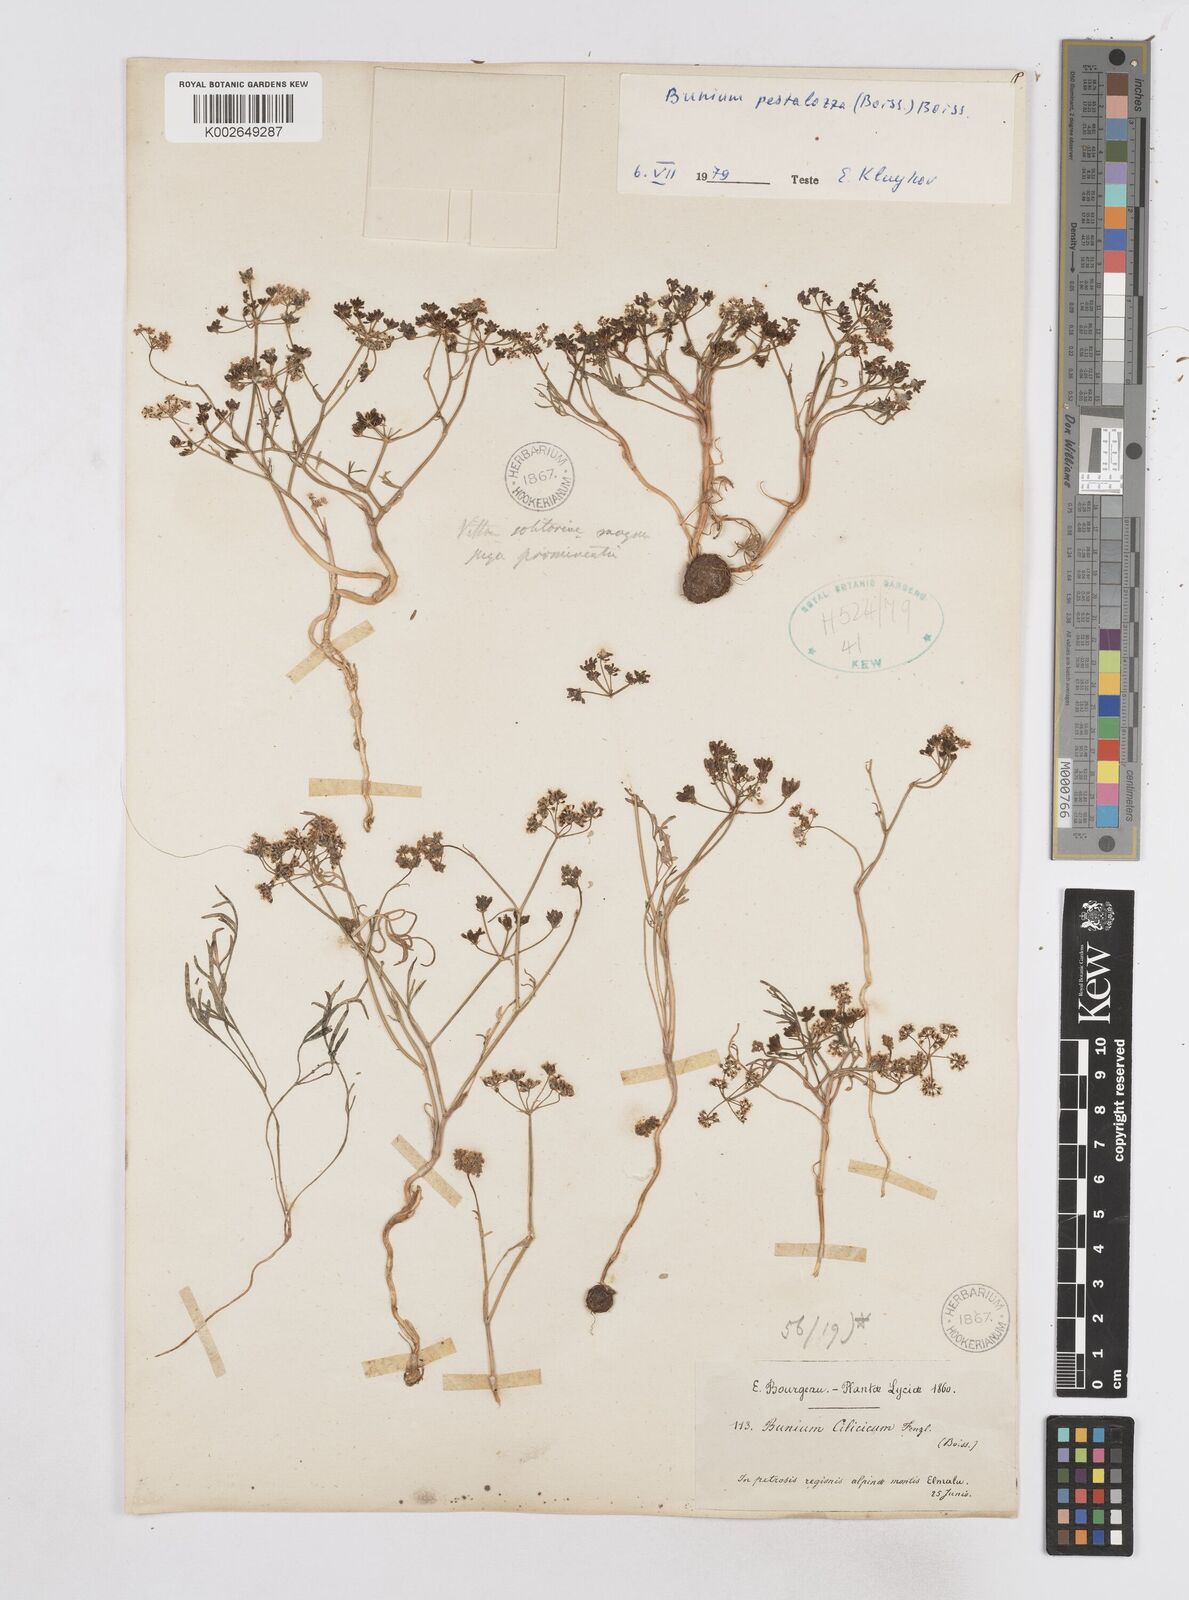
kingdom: Plantae
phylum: Tracheophyta
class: Magnoliopsida
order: Apiales
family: Apiaceae
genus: Bunium
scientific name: Bunium pestalozzae
